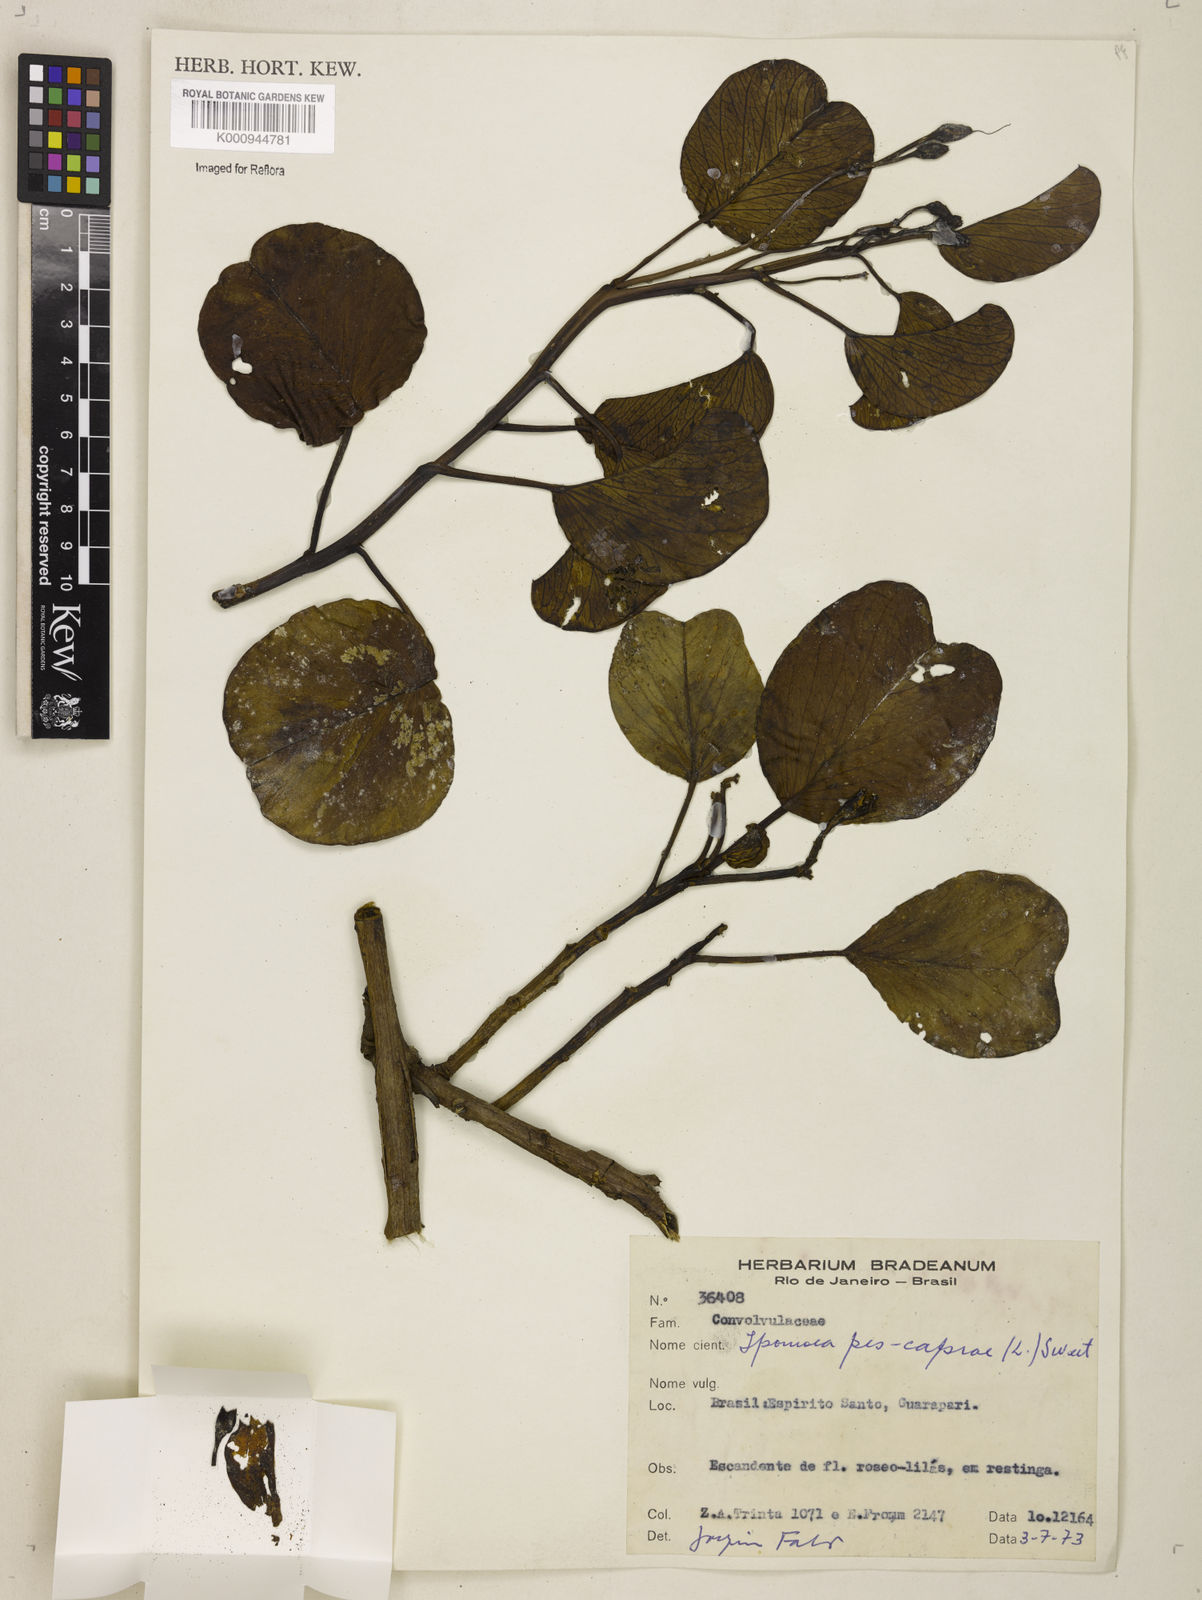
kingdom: Plantae
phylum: Tracheophyta
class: Magnoliopsida
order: Solanales
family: Convolvulaceae
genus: Ipomoea
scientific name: Ipomoea pes-caprae
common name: Beach morning glory
